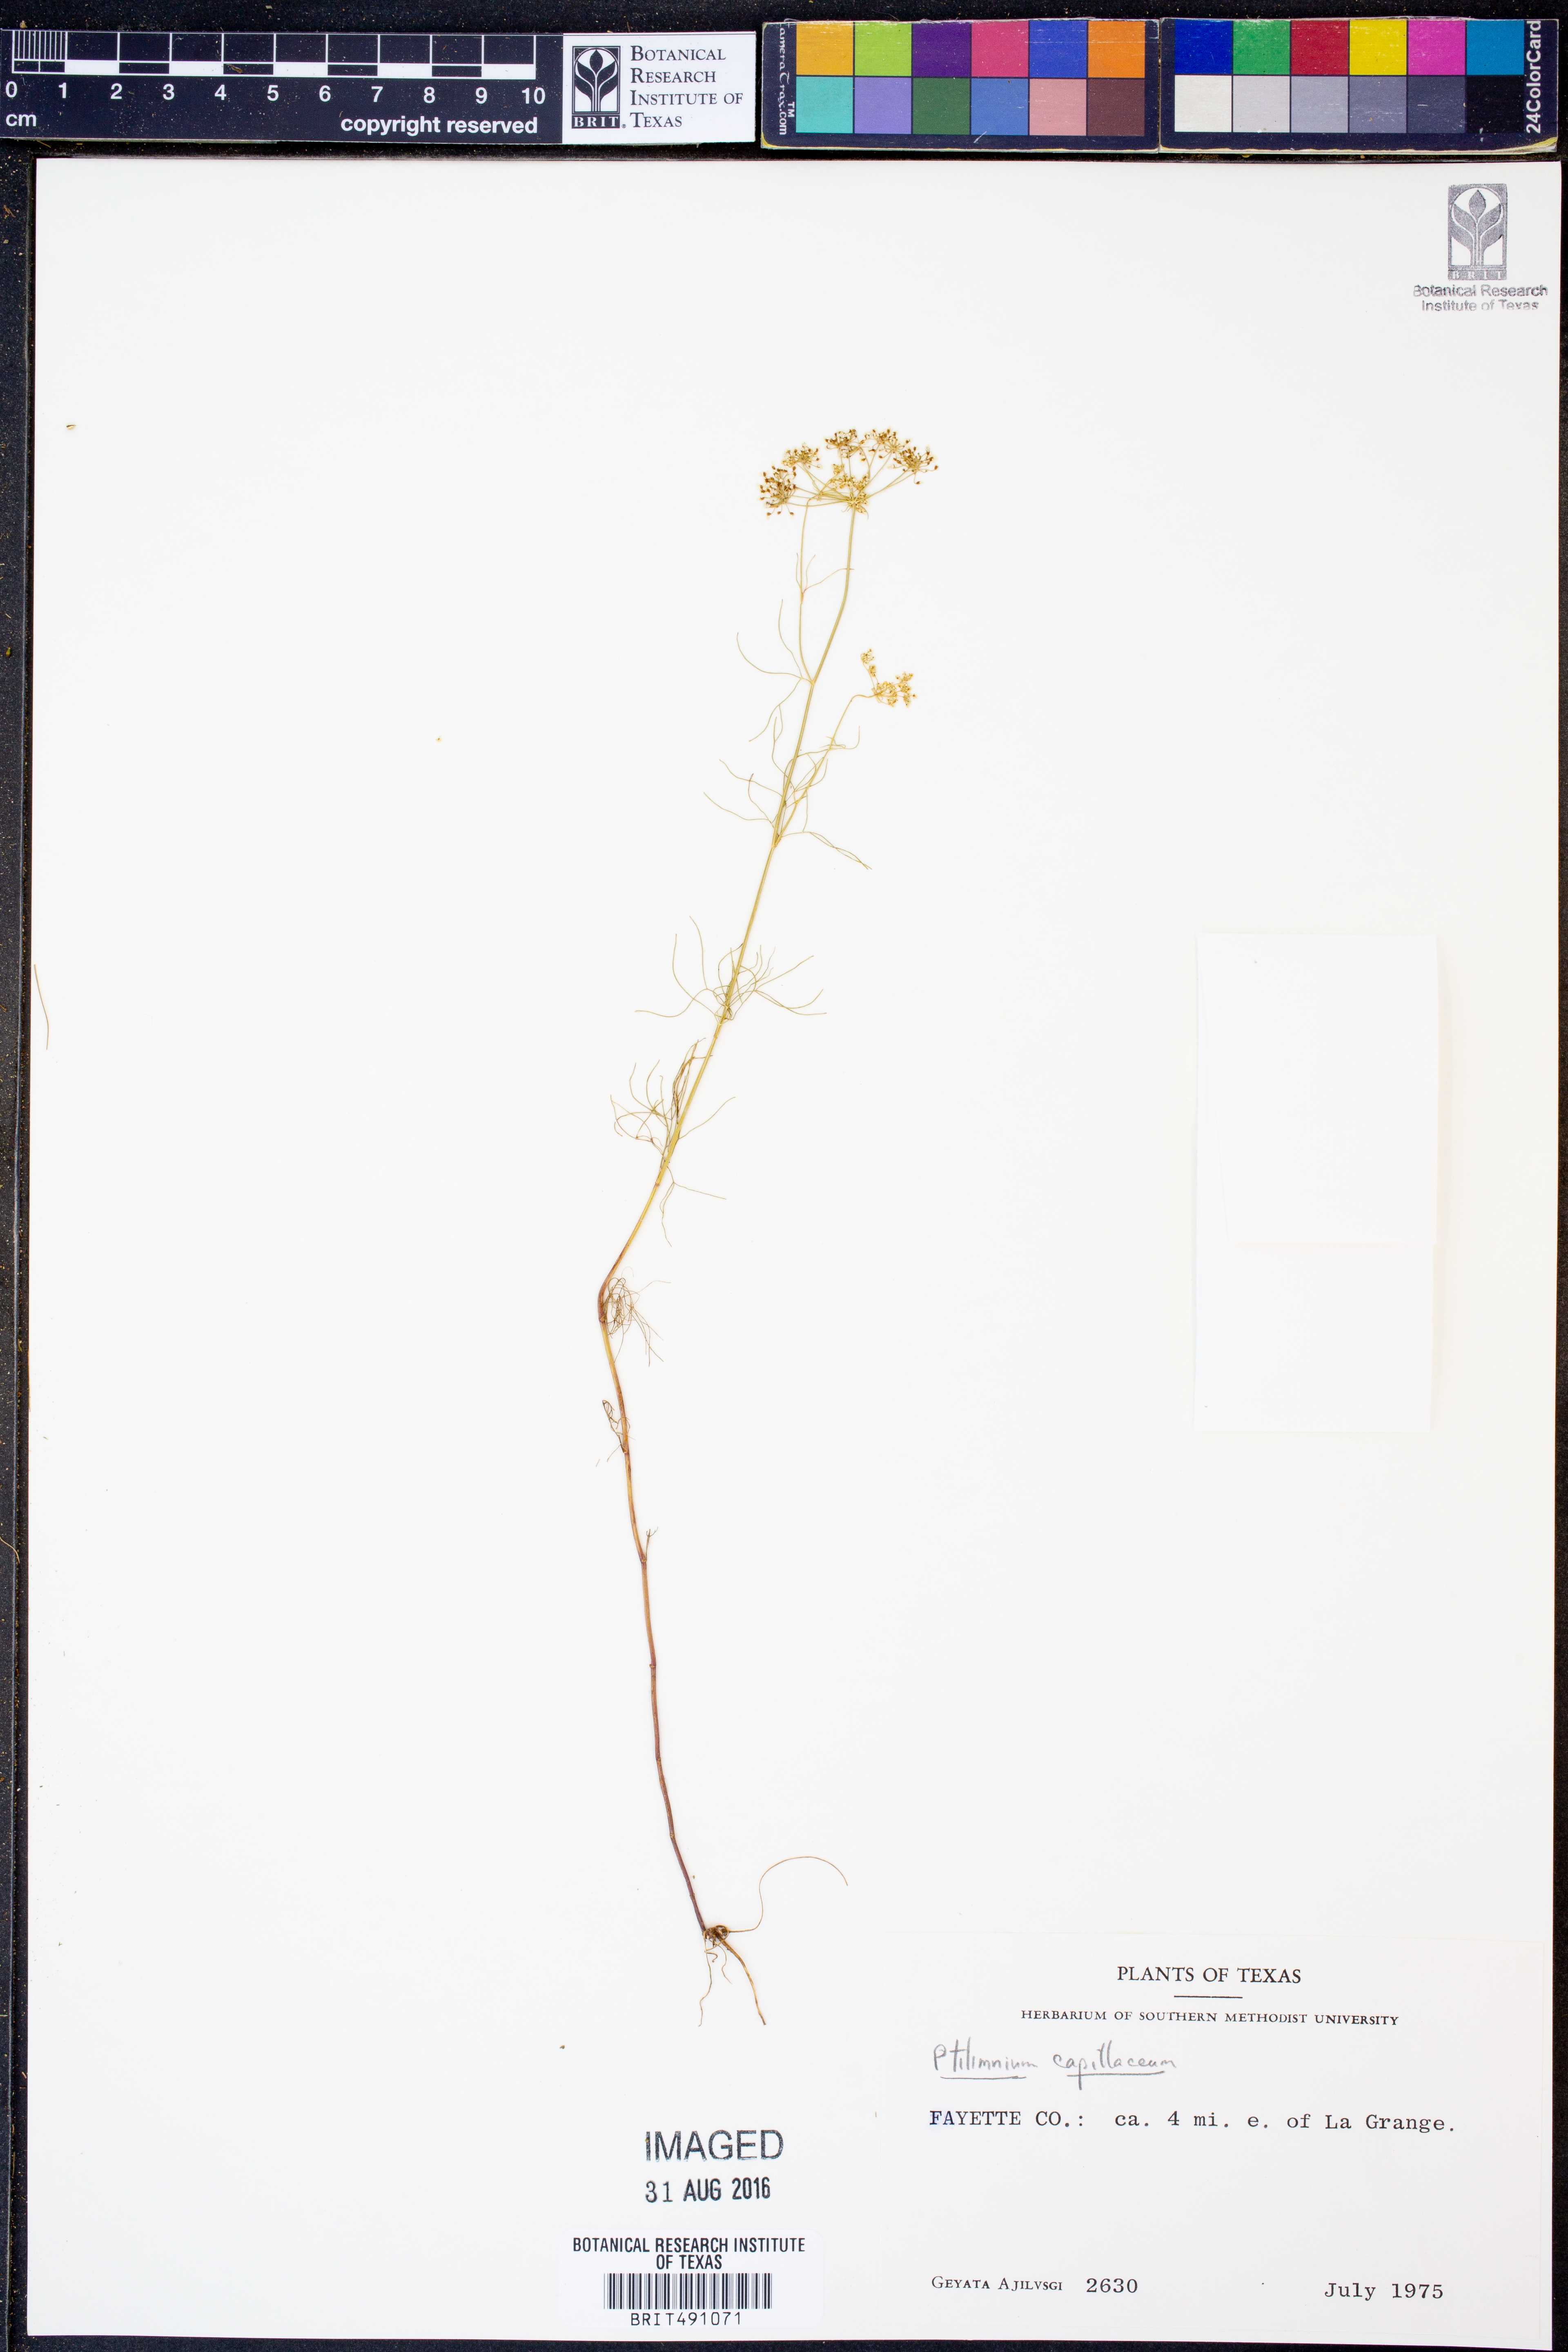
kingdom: Plantae
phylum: Tracheophyta
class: Magnoliopsida
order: Apiales
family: Apiaceae
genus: Ptilimnium
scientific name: Ptilimnium capillaceum
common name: Herbwilliam
